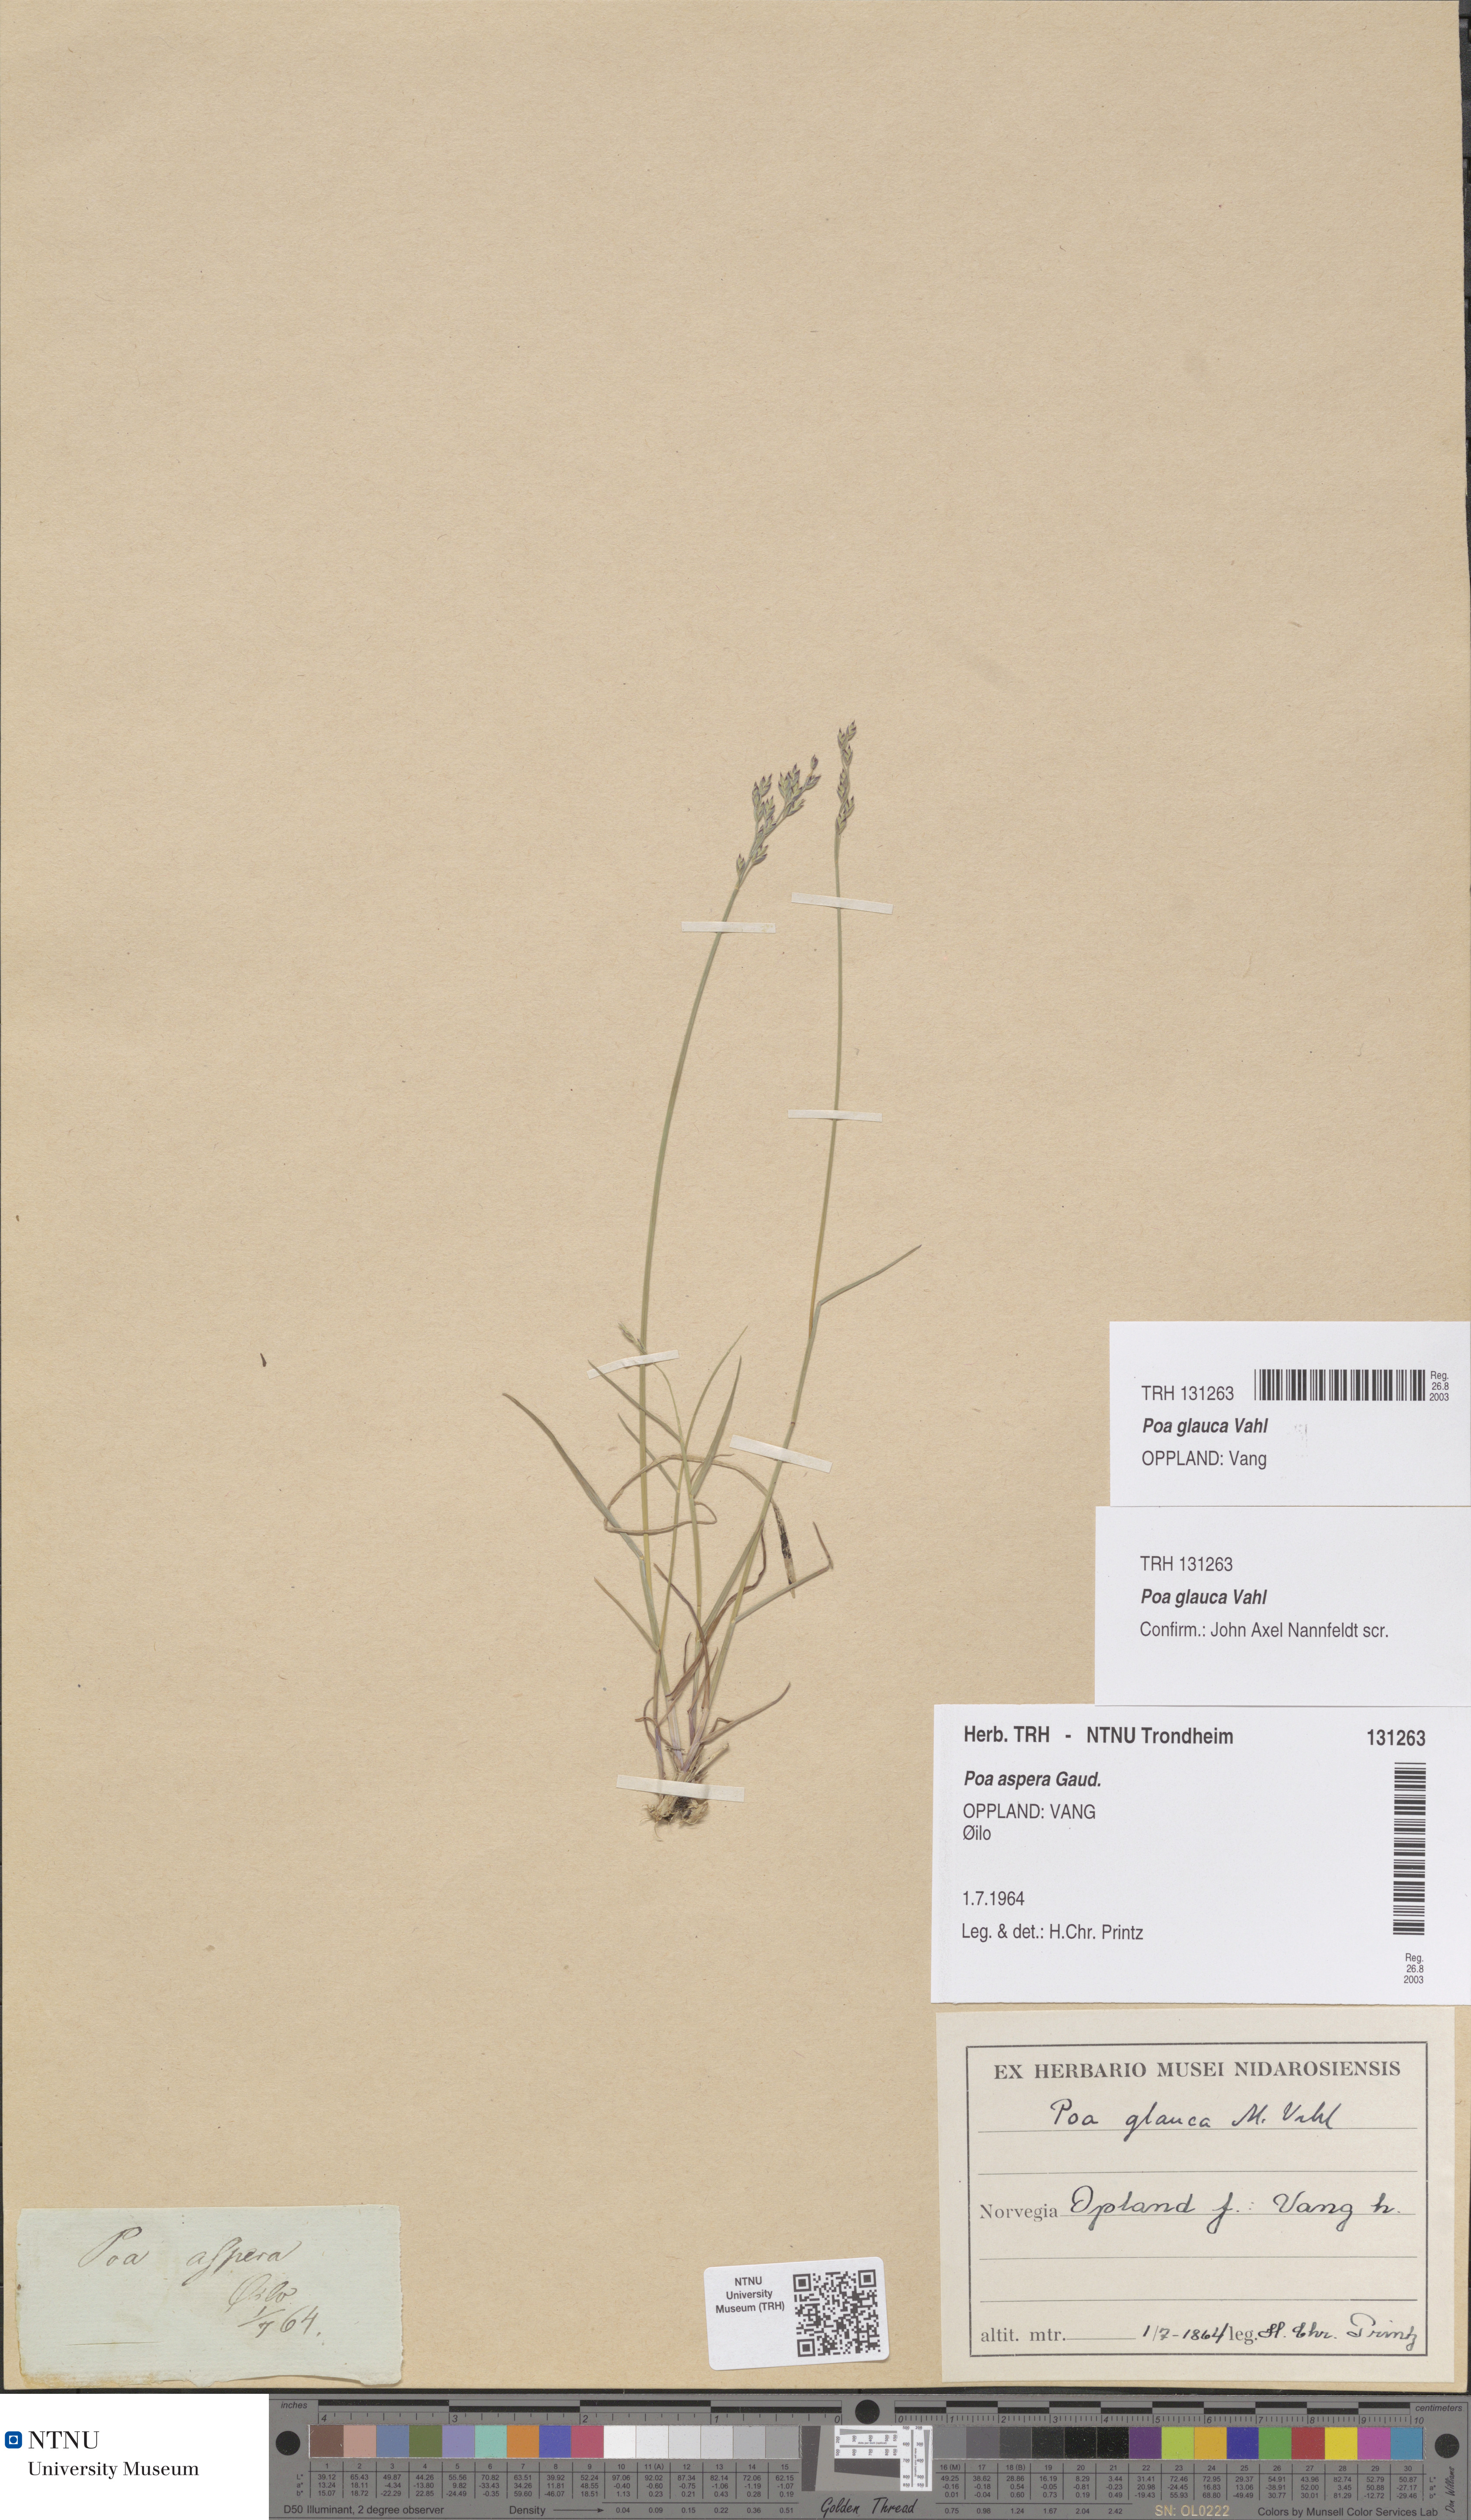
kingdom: Plantae
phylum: Tracheophyta
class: Liliopsida
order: Poales
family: Poaceae
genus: Poa
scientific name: Poa glauca
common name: Glaucous bluegrass
